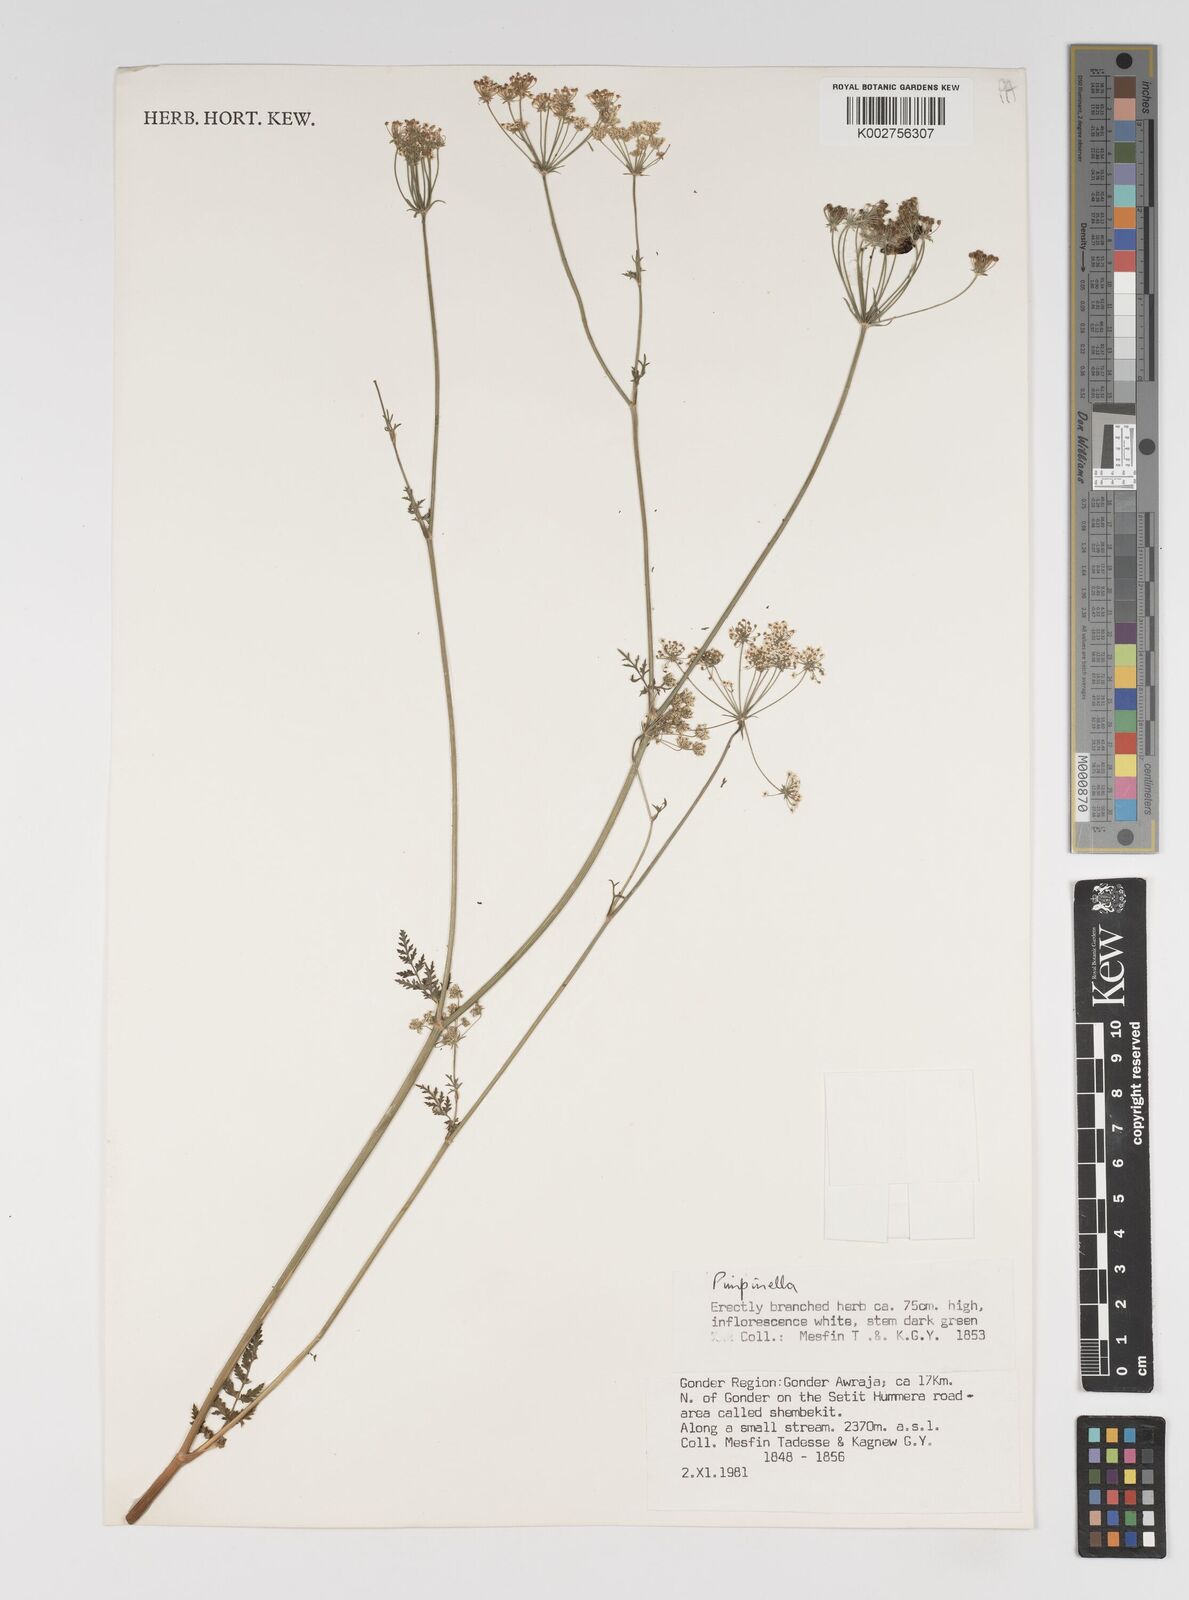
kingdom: Plantae
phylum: Tracheophyta
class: Magnoliopsida
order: Apiales
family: Apiaceae
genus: Pimpinella
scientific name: Pimpinella peregrina
